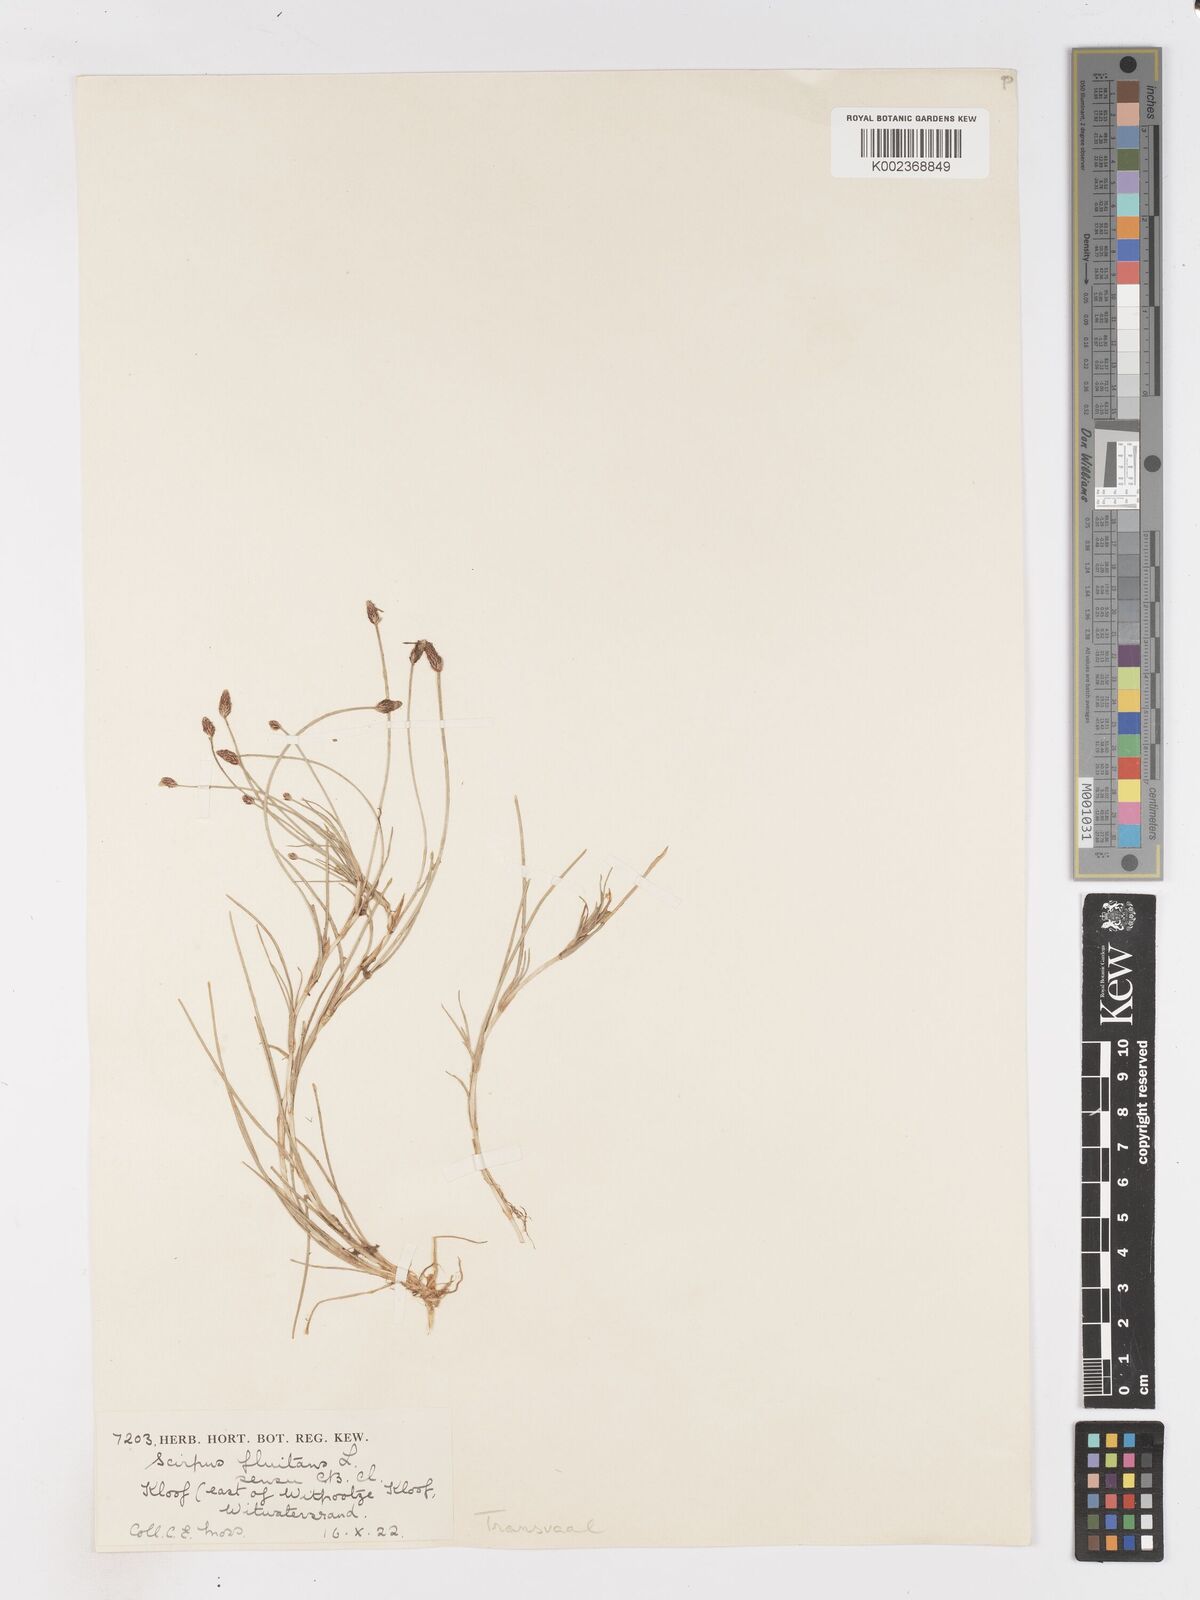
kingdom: Plantae
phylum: Tracheophyta
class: Liliopsida
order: Poales
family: Cyperaceae
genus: Isolepis
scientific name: Isolepis fluitans
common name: Floating club-rush
